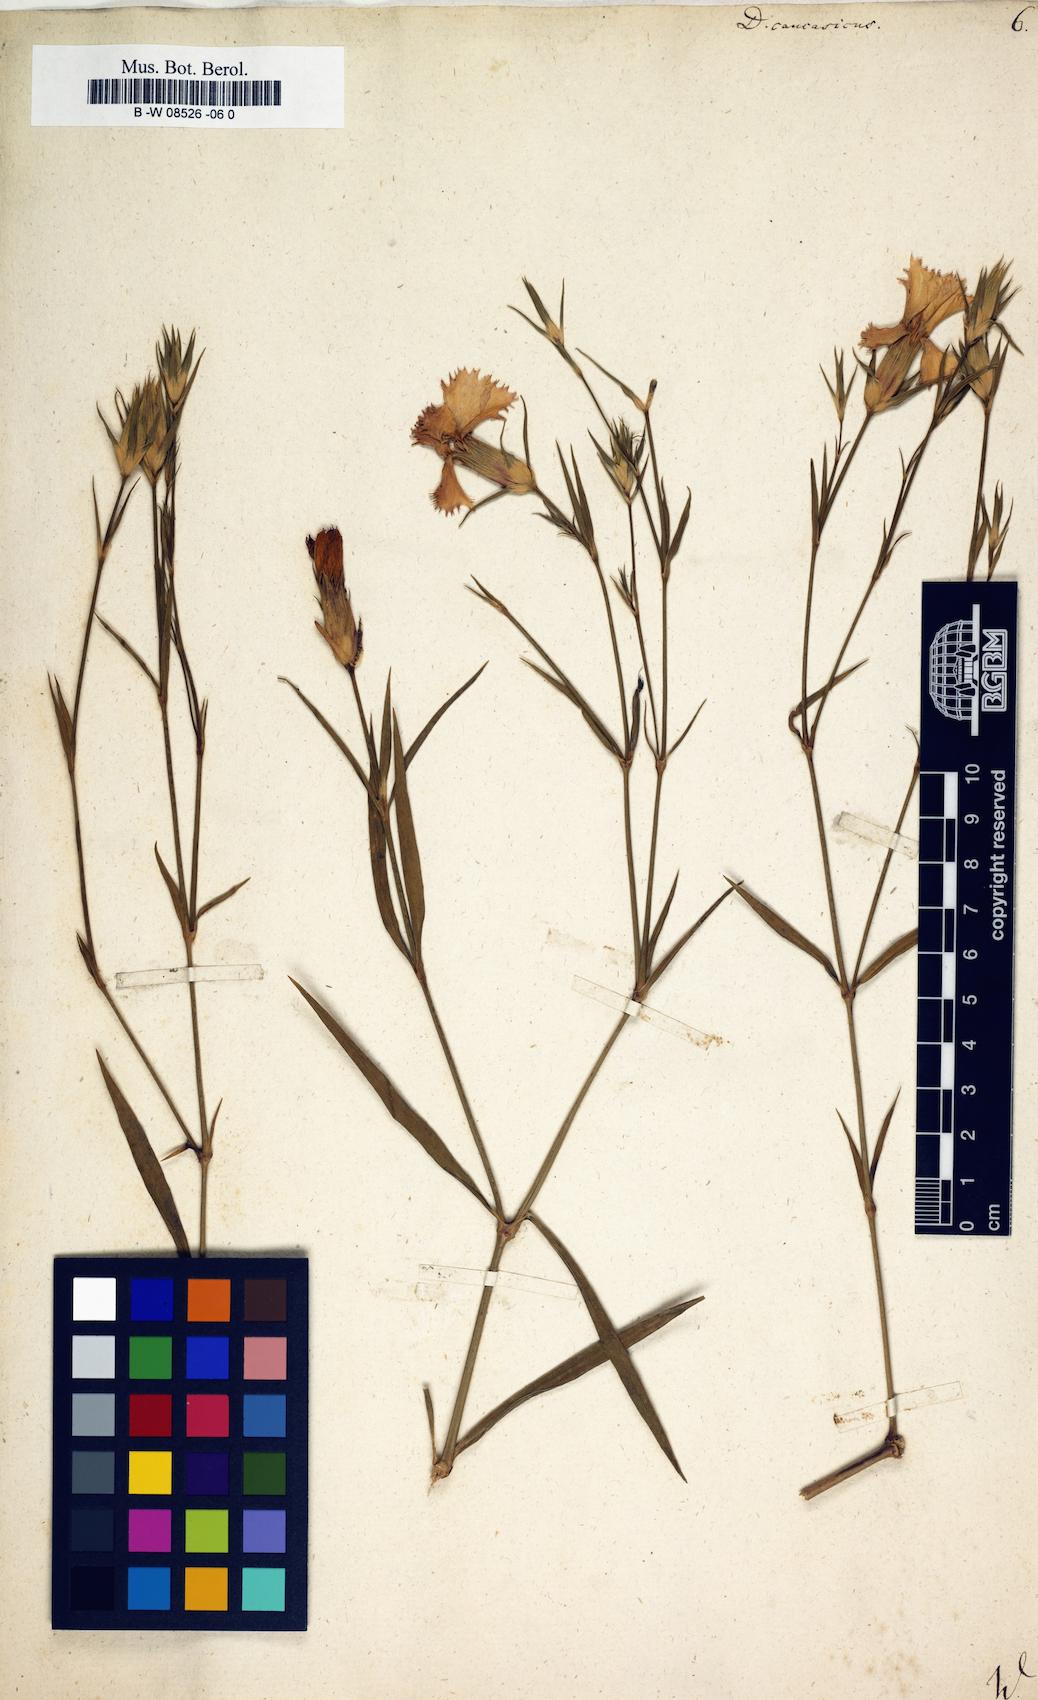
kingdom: Plantae
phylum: Tracheophyta
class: Magnoliopsida
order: Caryophyllales
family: Caryophyllaceae
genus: Dianthus
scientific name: Dianthus bicolor
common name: Bicolour pink
